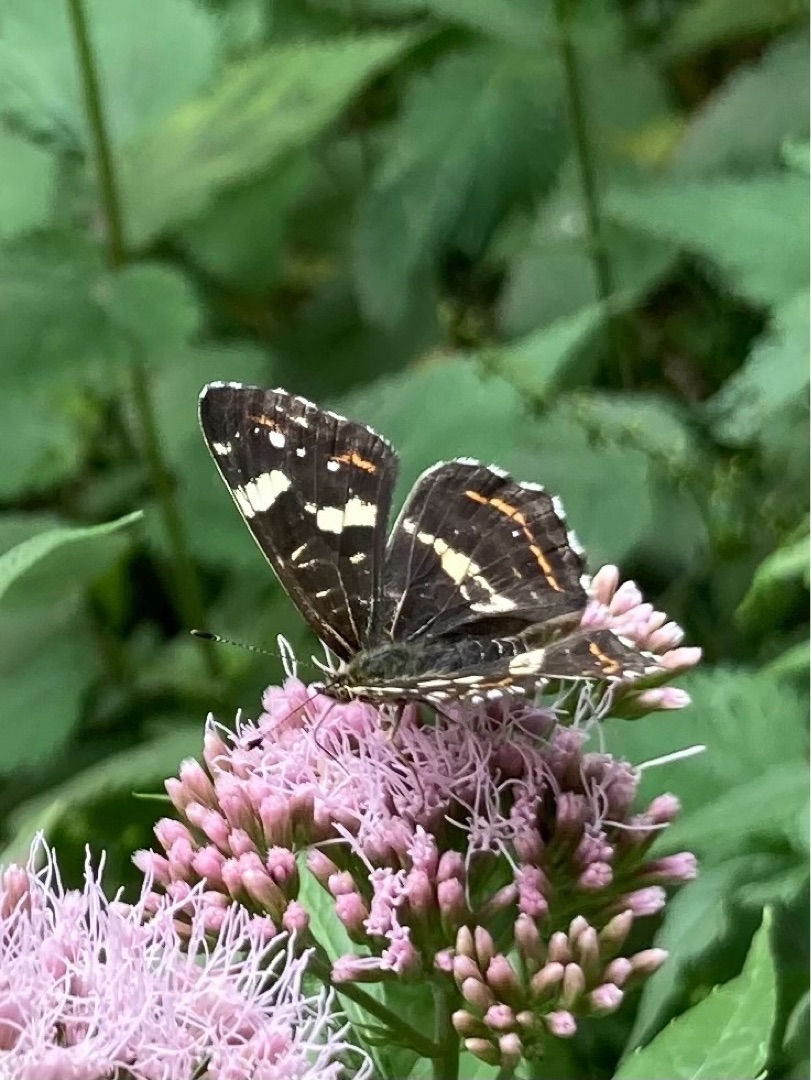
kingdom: Animalia
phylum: Arthropoda
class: Insecta
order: Lepidoptera
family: Nymphalidae
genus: Araschnia
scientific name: Araschnia levana
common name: Nældesommerfugl
